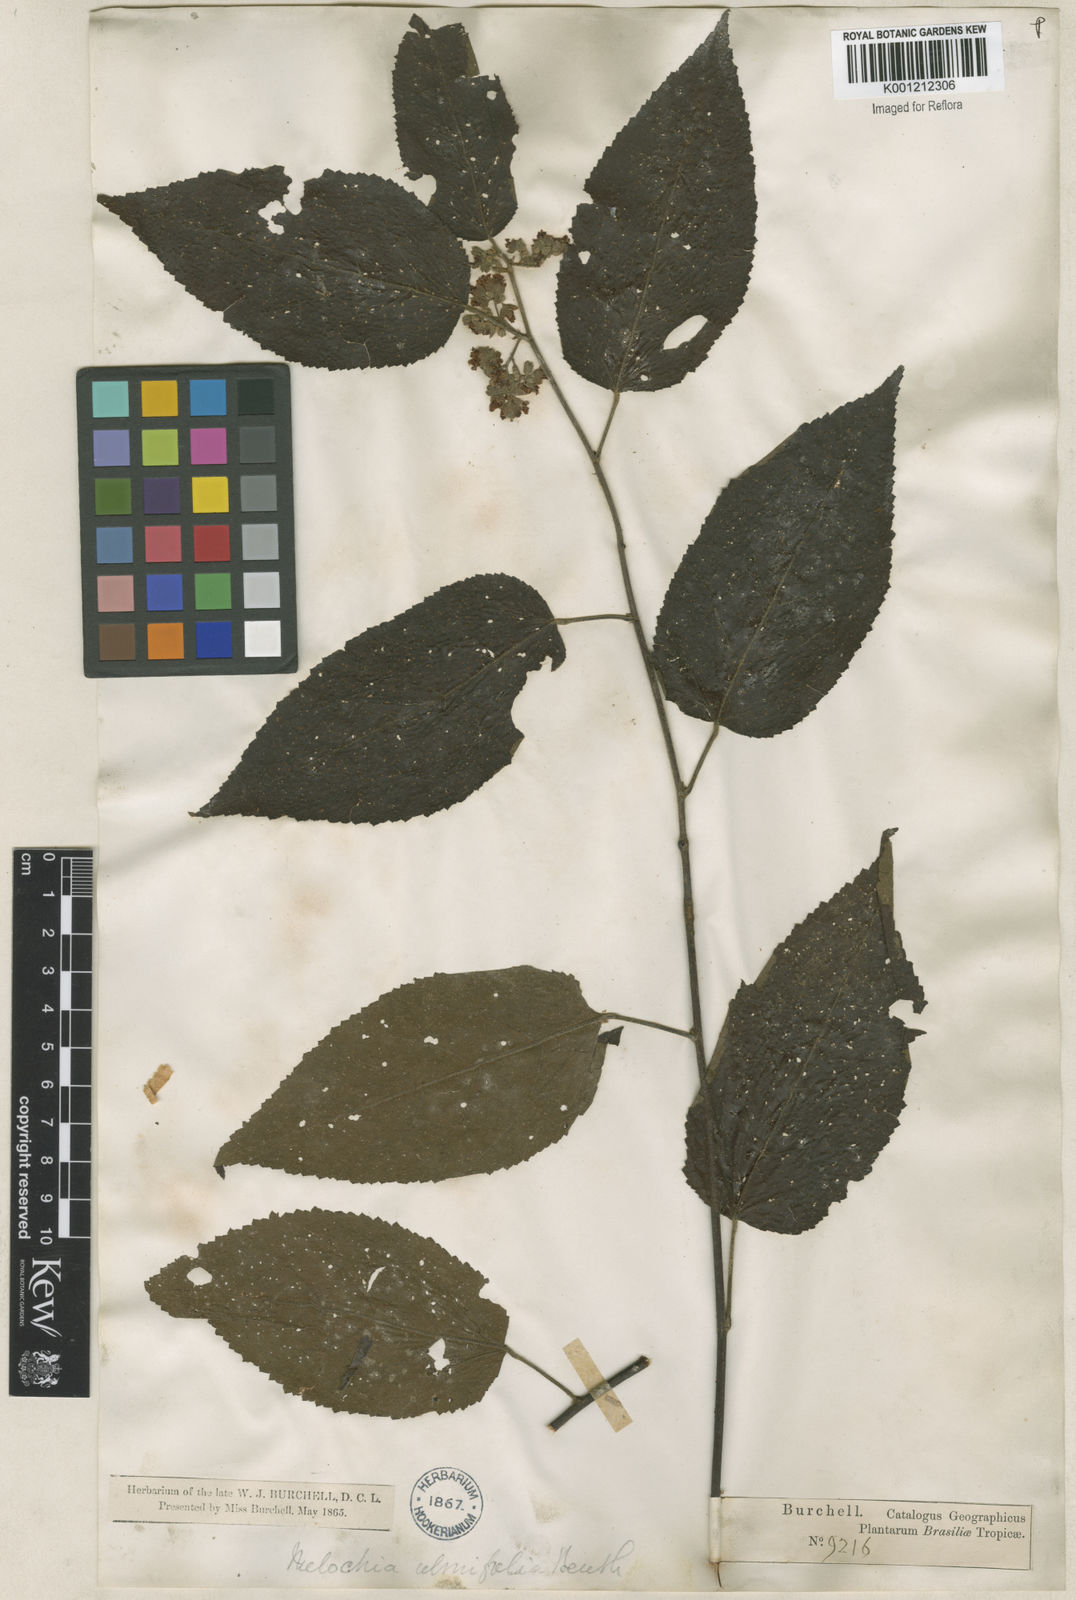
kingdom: Plantae
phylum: Tracheophyta
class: Magnoliopsida
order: Malvales
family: Malvaceae
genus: Melochia
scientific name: Melochia ulmifolia
